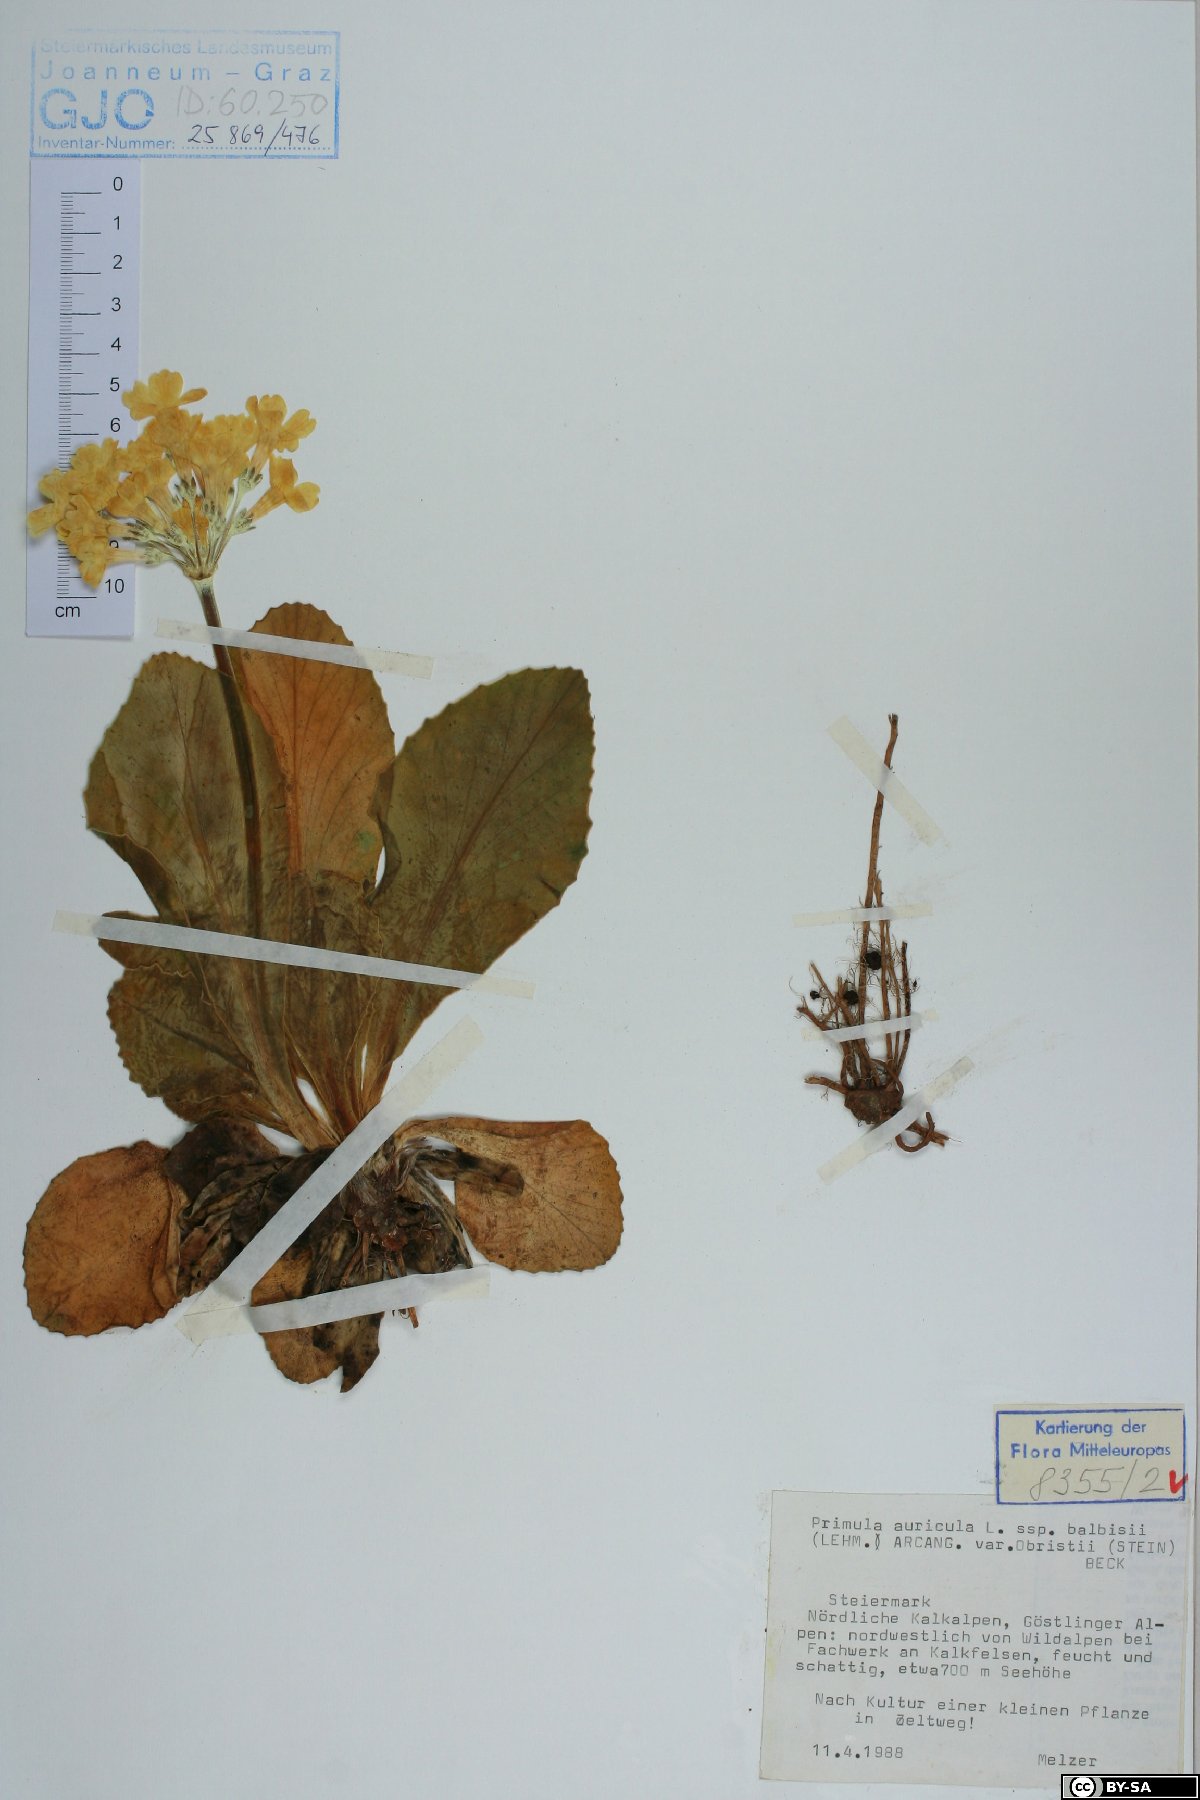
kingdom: Plantae
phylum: Tracheophyta
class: Magnoliopsida
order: Ericales
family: Primulaceae
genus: Primula
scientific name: Primula auricula
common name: Auricula
